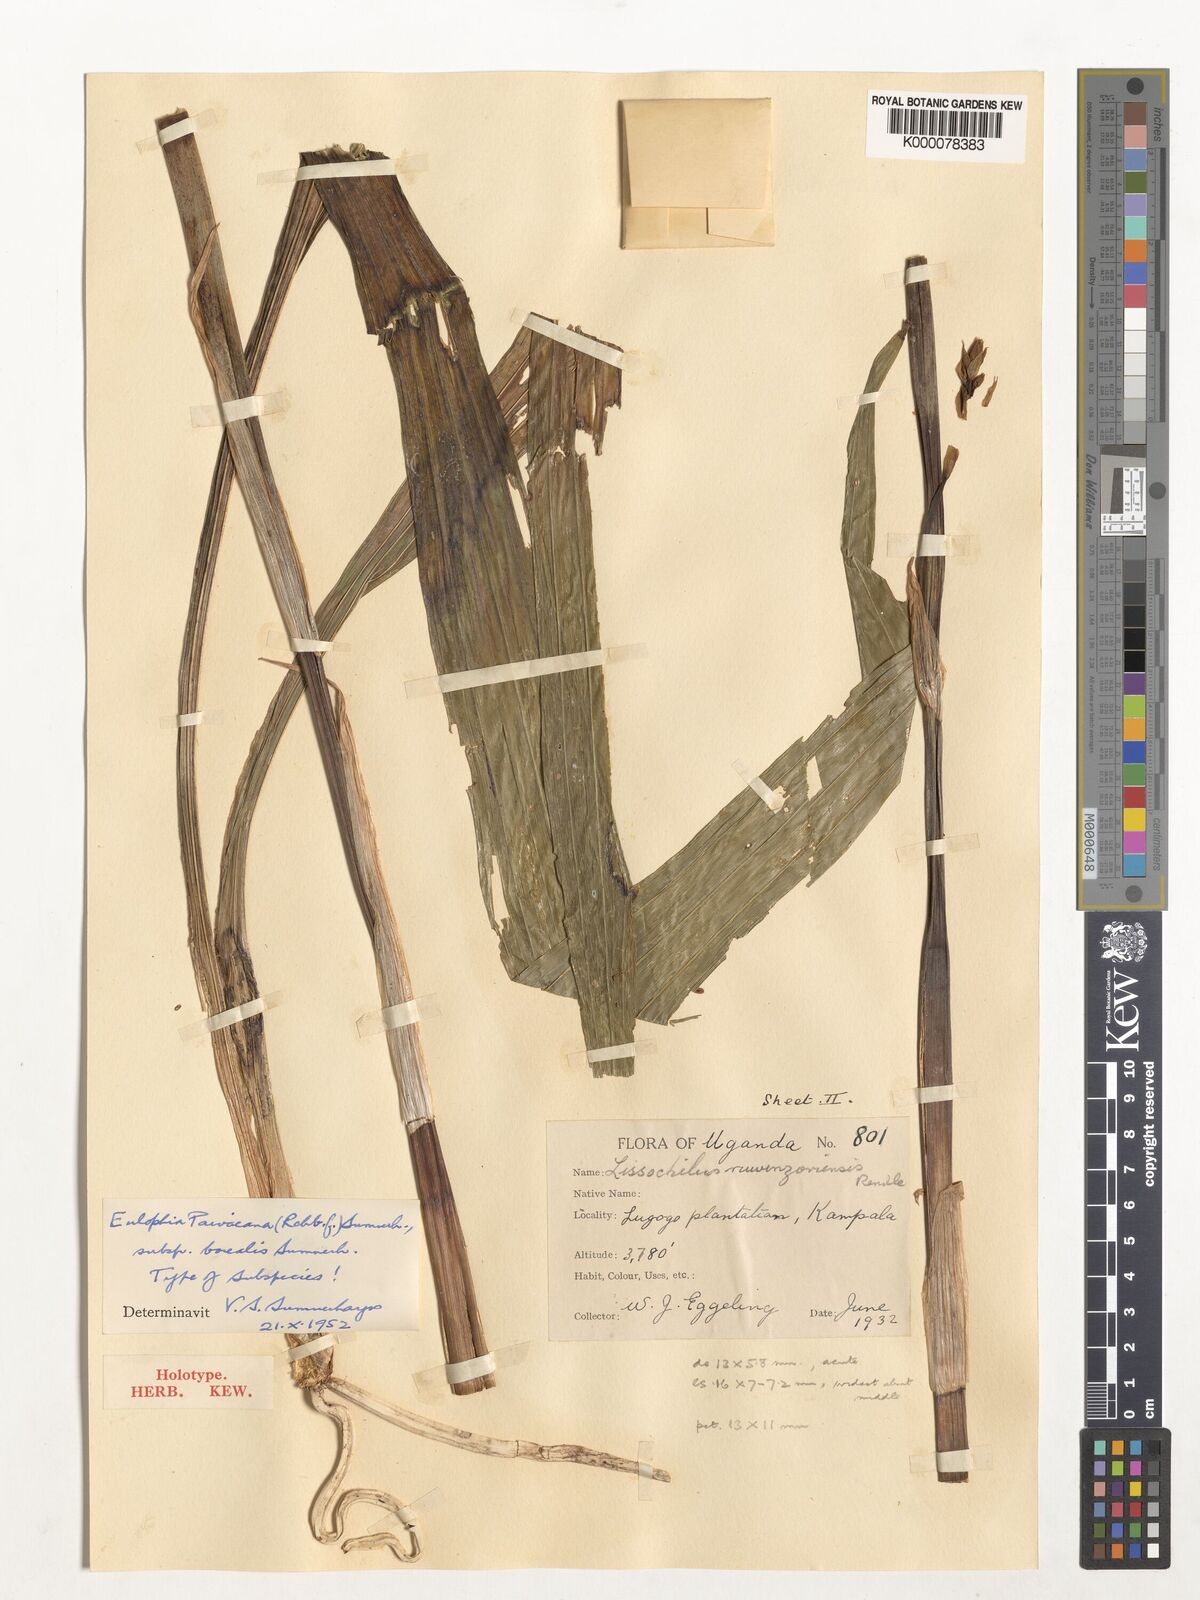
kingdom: Plantae
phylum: Tracheophyta
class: Liliopsida
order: Asparagales
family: Orchidaceae
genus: Eulophia
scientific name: Eulophia streptopetala
